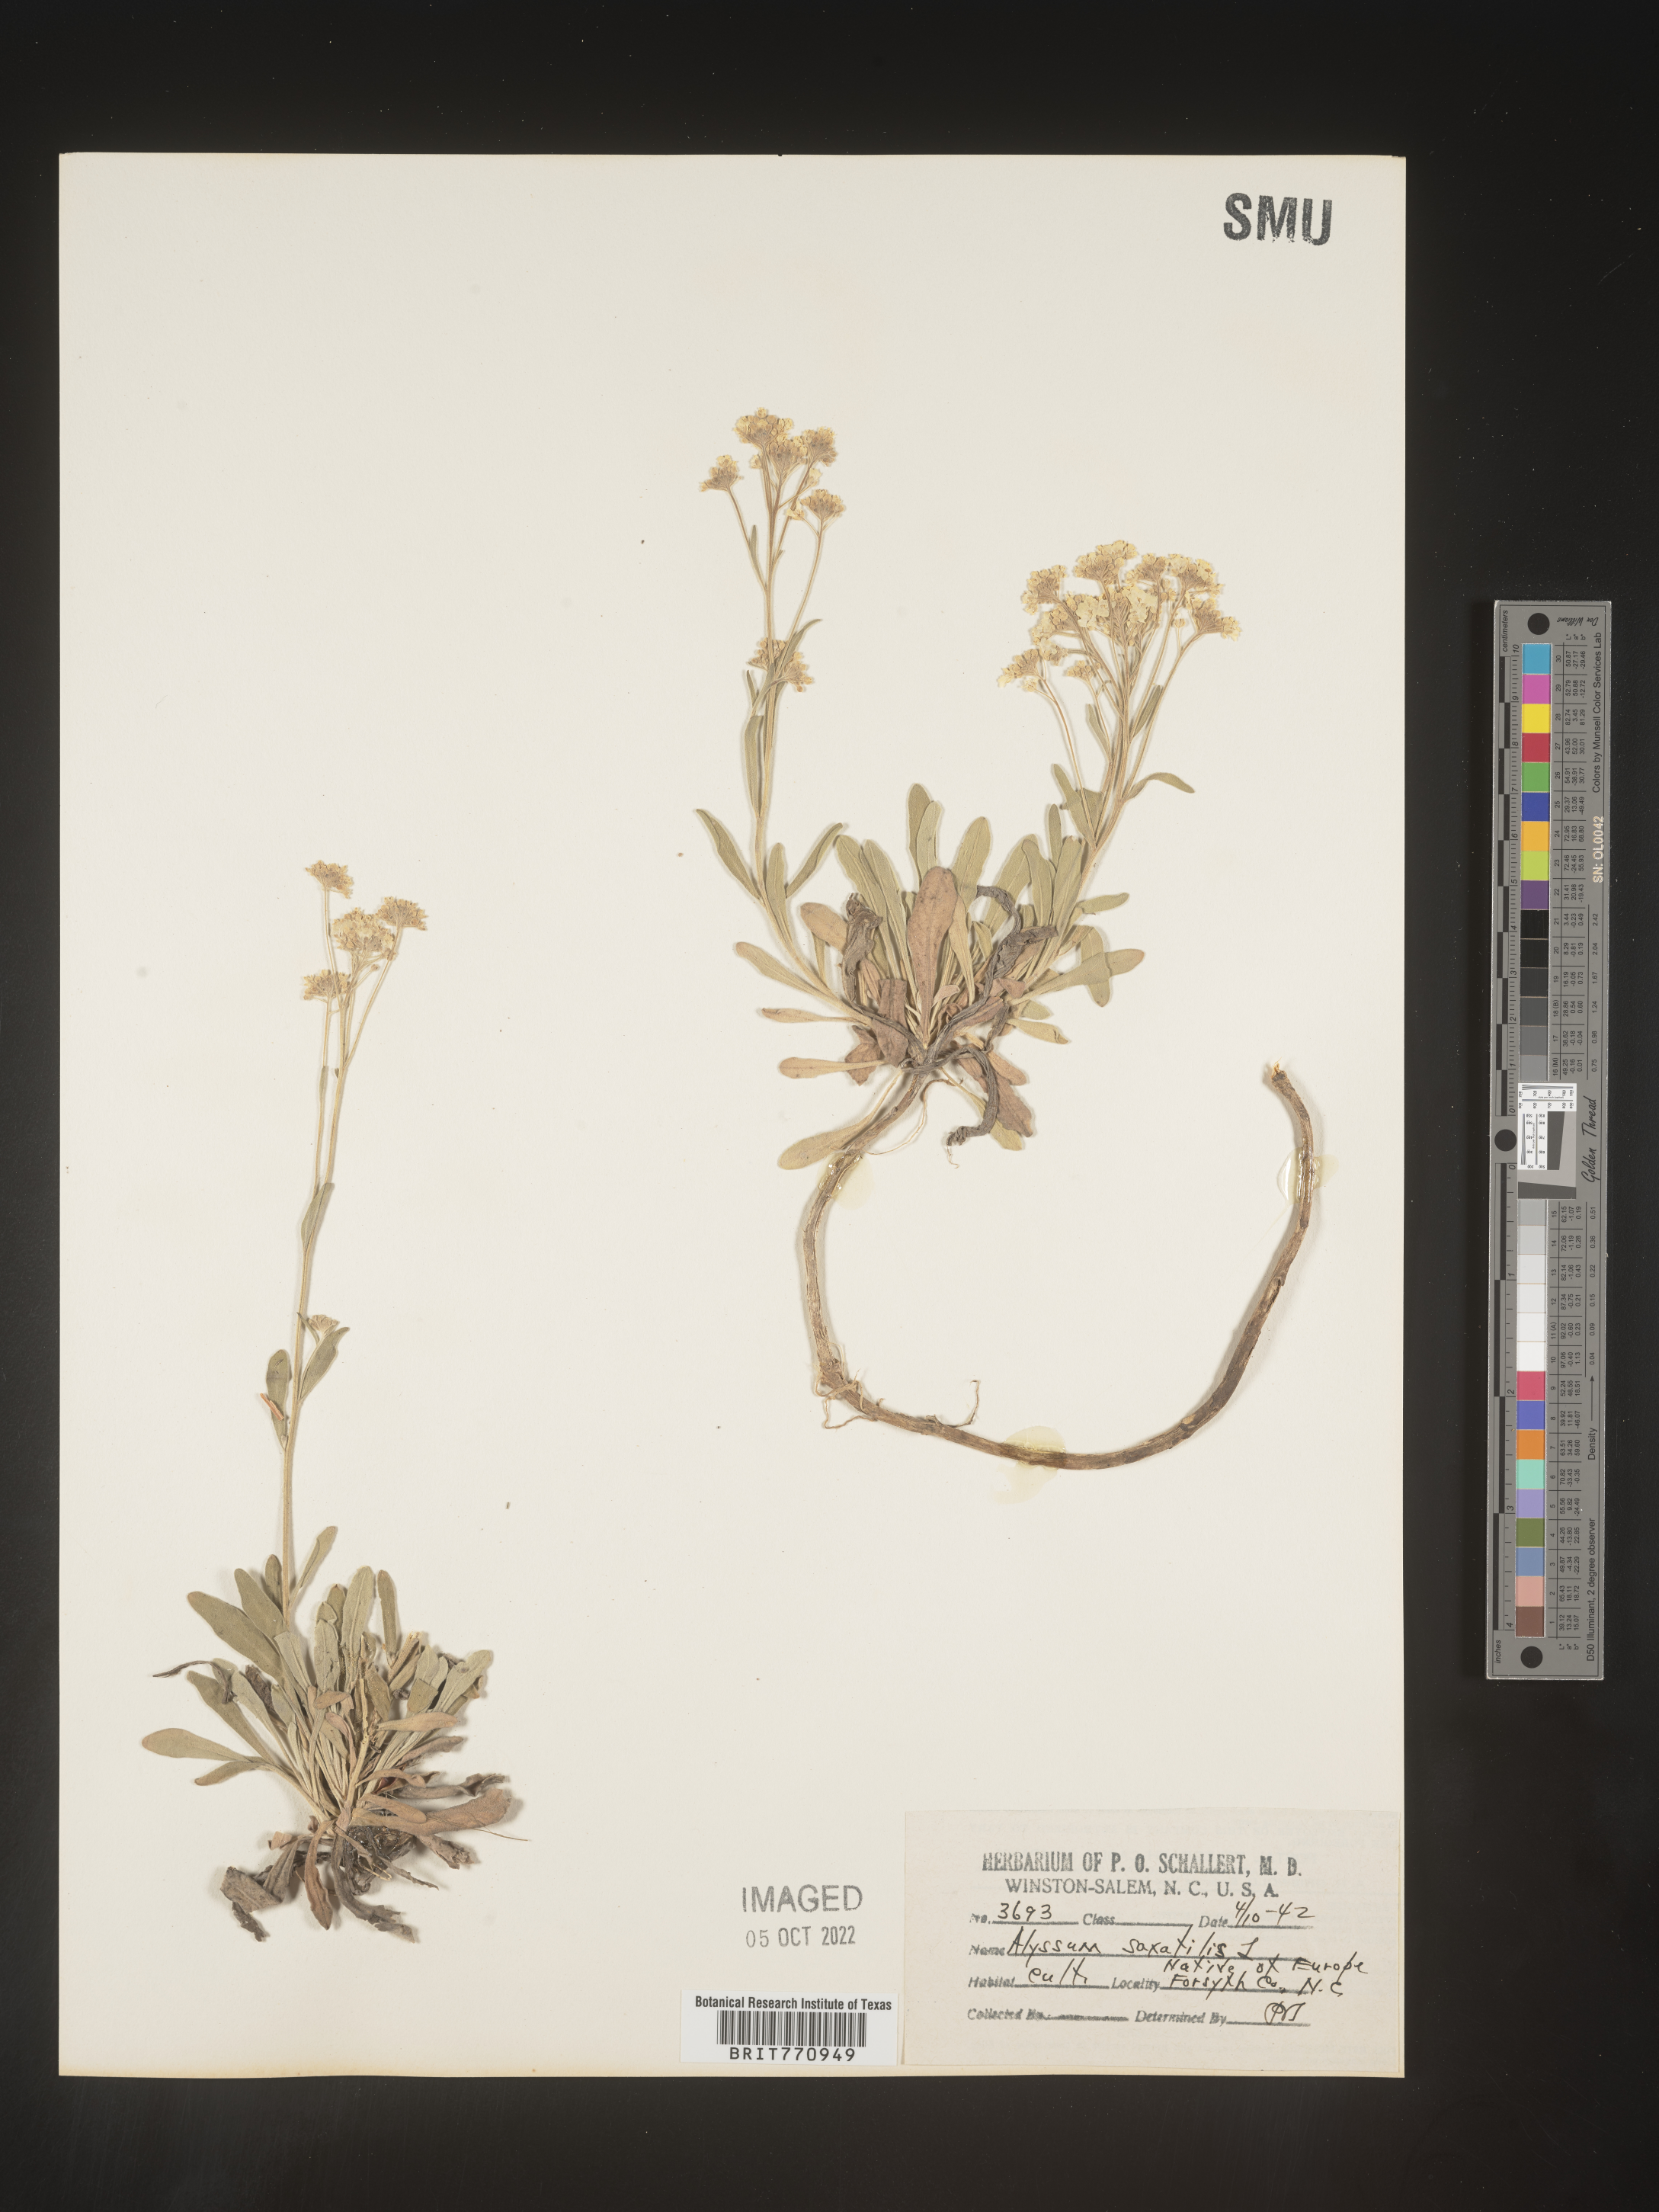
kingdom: Plantae
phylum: Tracheophyta
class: Magnoliopsida
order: Brassicales
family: Brassicaceae
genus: Alyssum
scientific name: Alyssum
